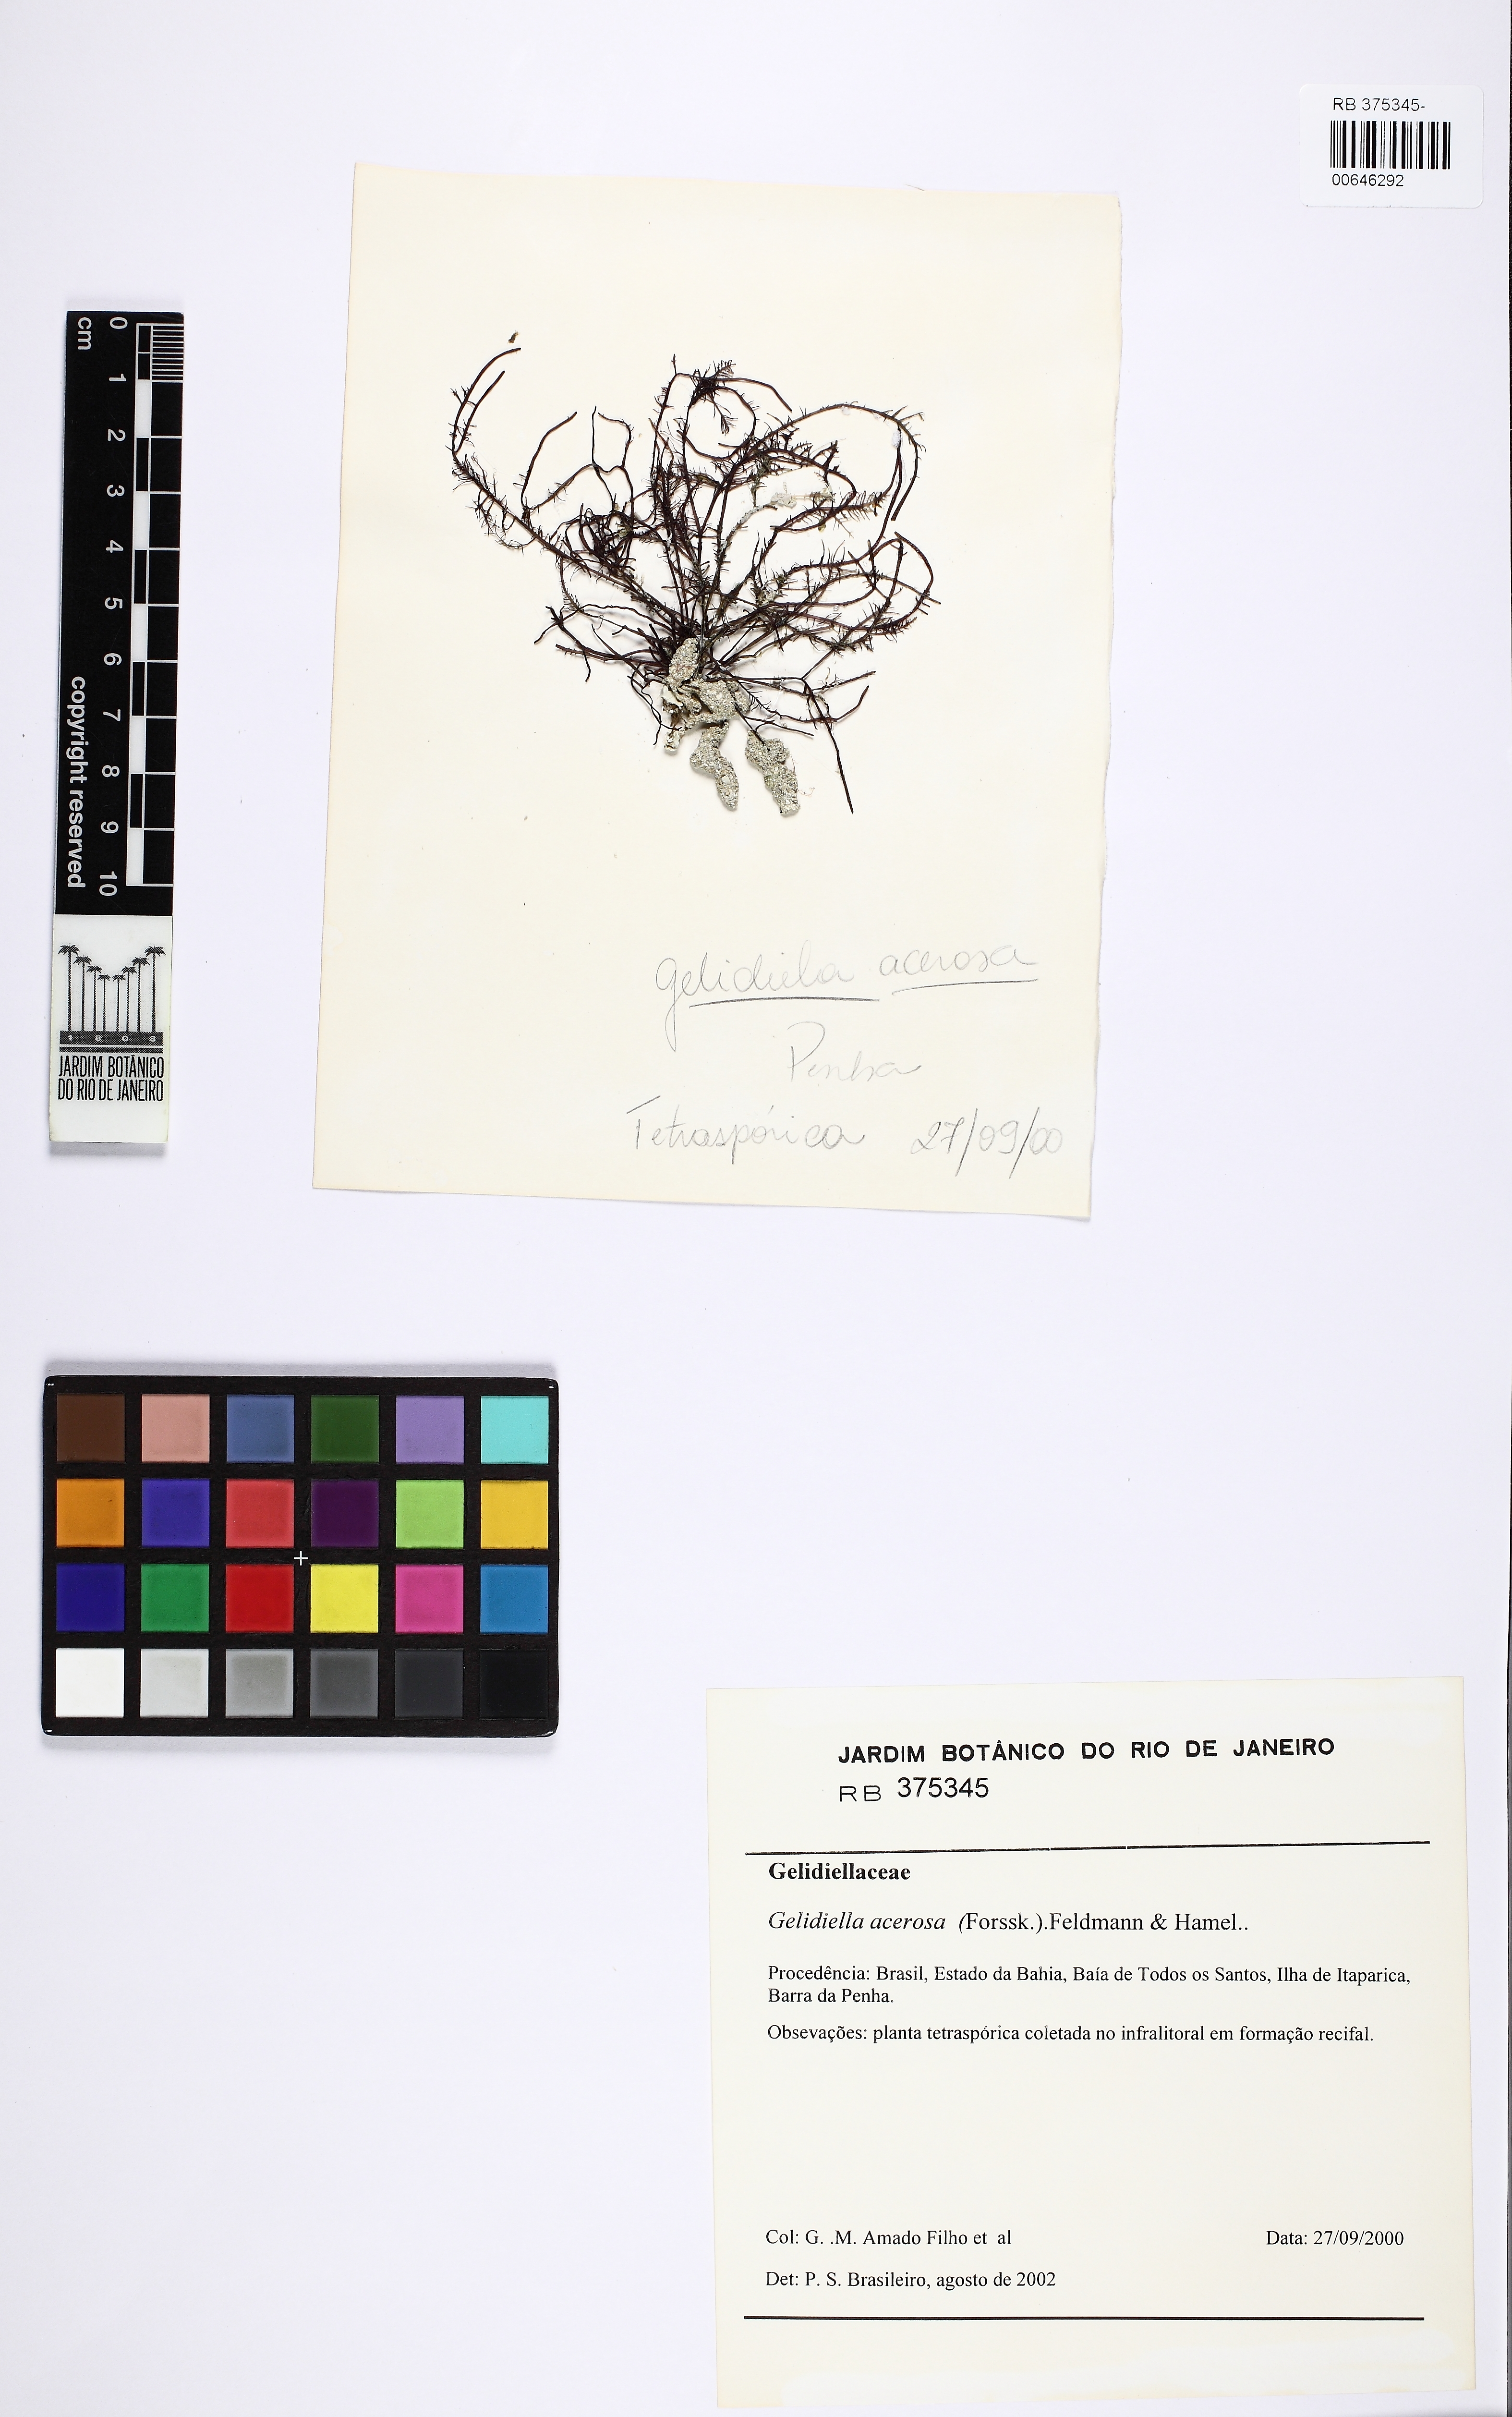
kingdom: Plantae
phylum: Rhodophyta
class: Florideophyceae
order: Gelidiales
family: Gelidiellaceae
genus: Gelidiella
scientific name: Gelidiella acerosa
